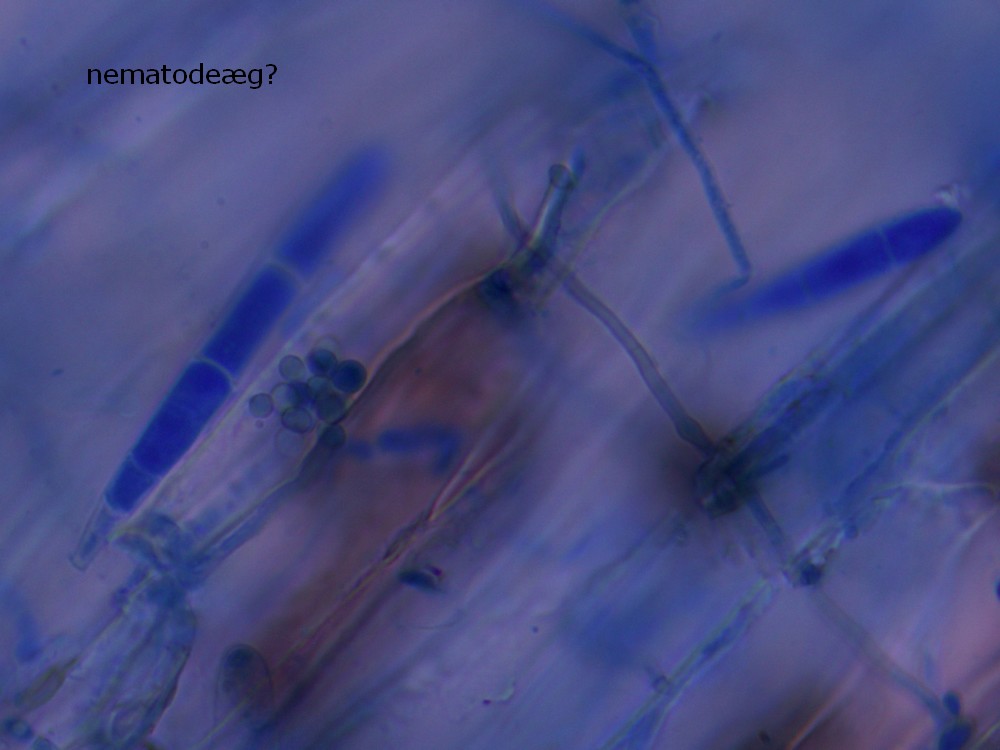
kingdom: Fungi
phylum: Ascomycota
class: Orbiliomycetes
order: Orbiliales
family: Orbiliaceae
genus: Dactylella
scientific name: Dactylella
